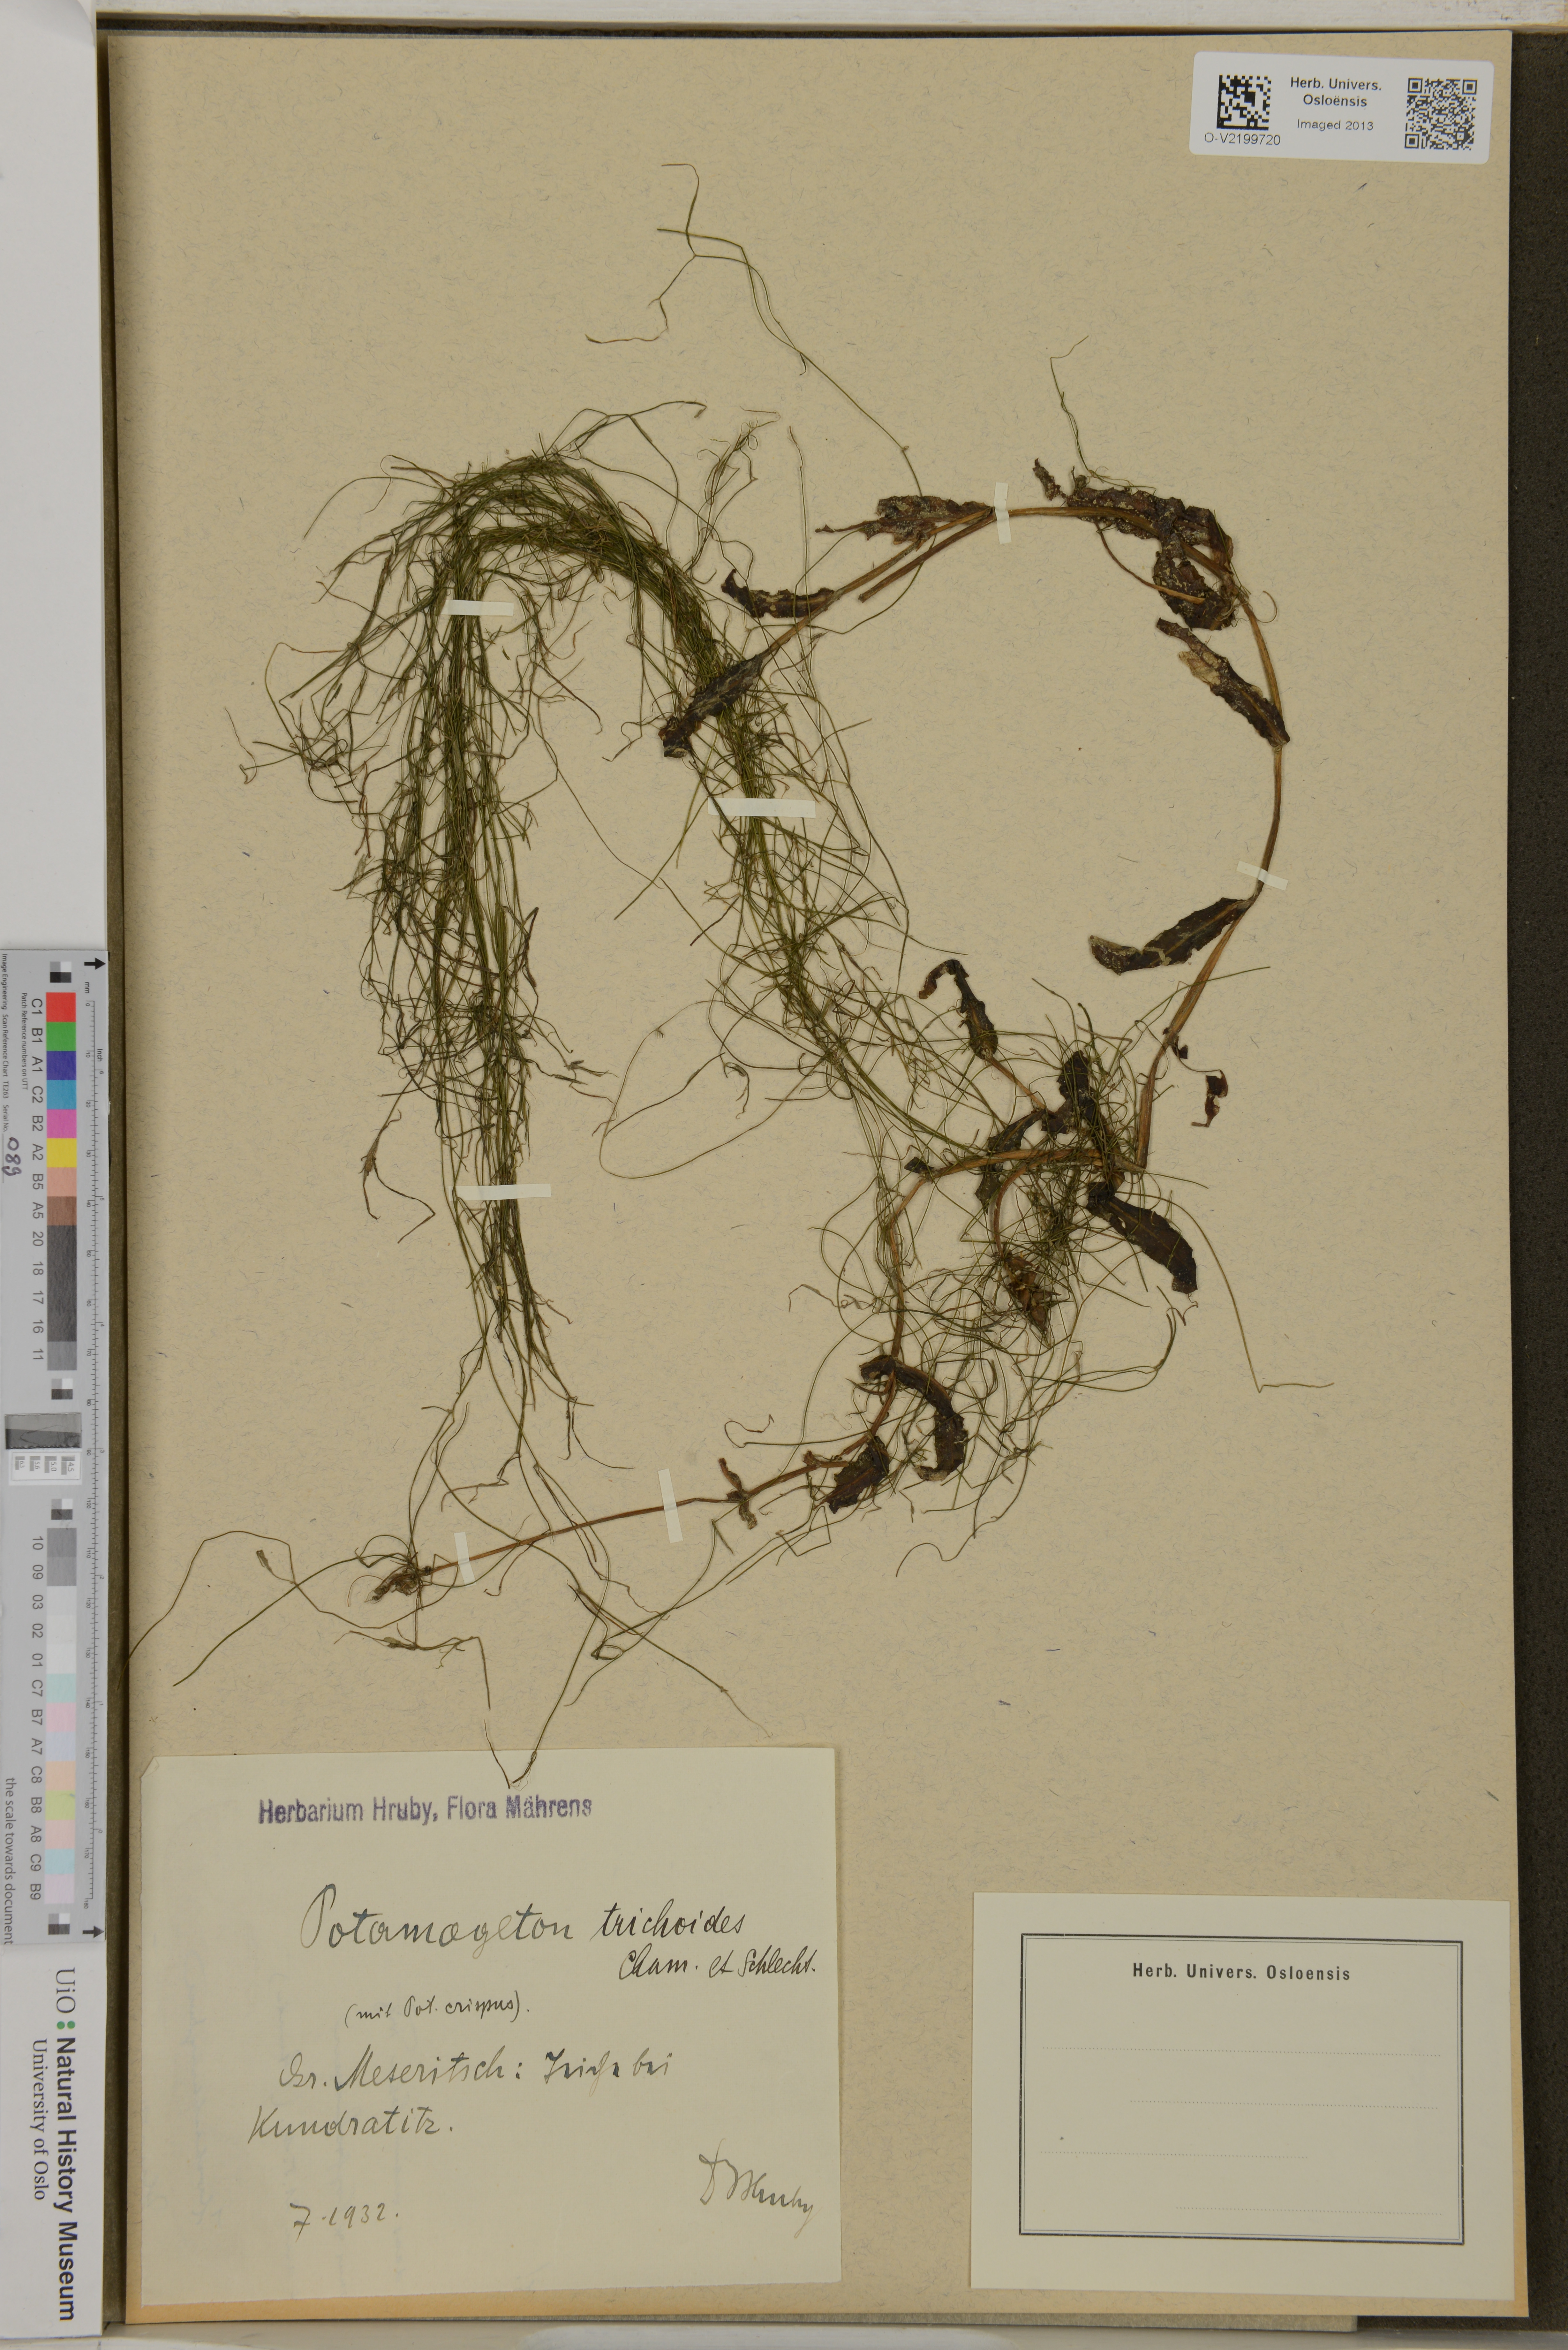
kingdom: Plantae
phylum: Tracheophyta
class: Liliopsida
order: Alismatales
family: Potamogetonaceae
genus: Potamogeton
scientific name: Potamogeton trichoides
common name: Hairlike pondweed
